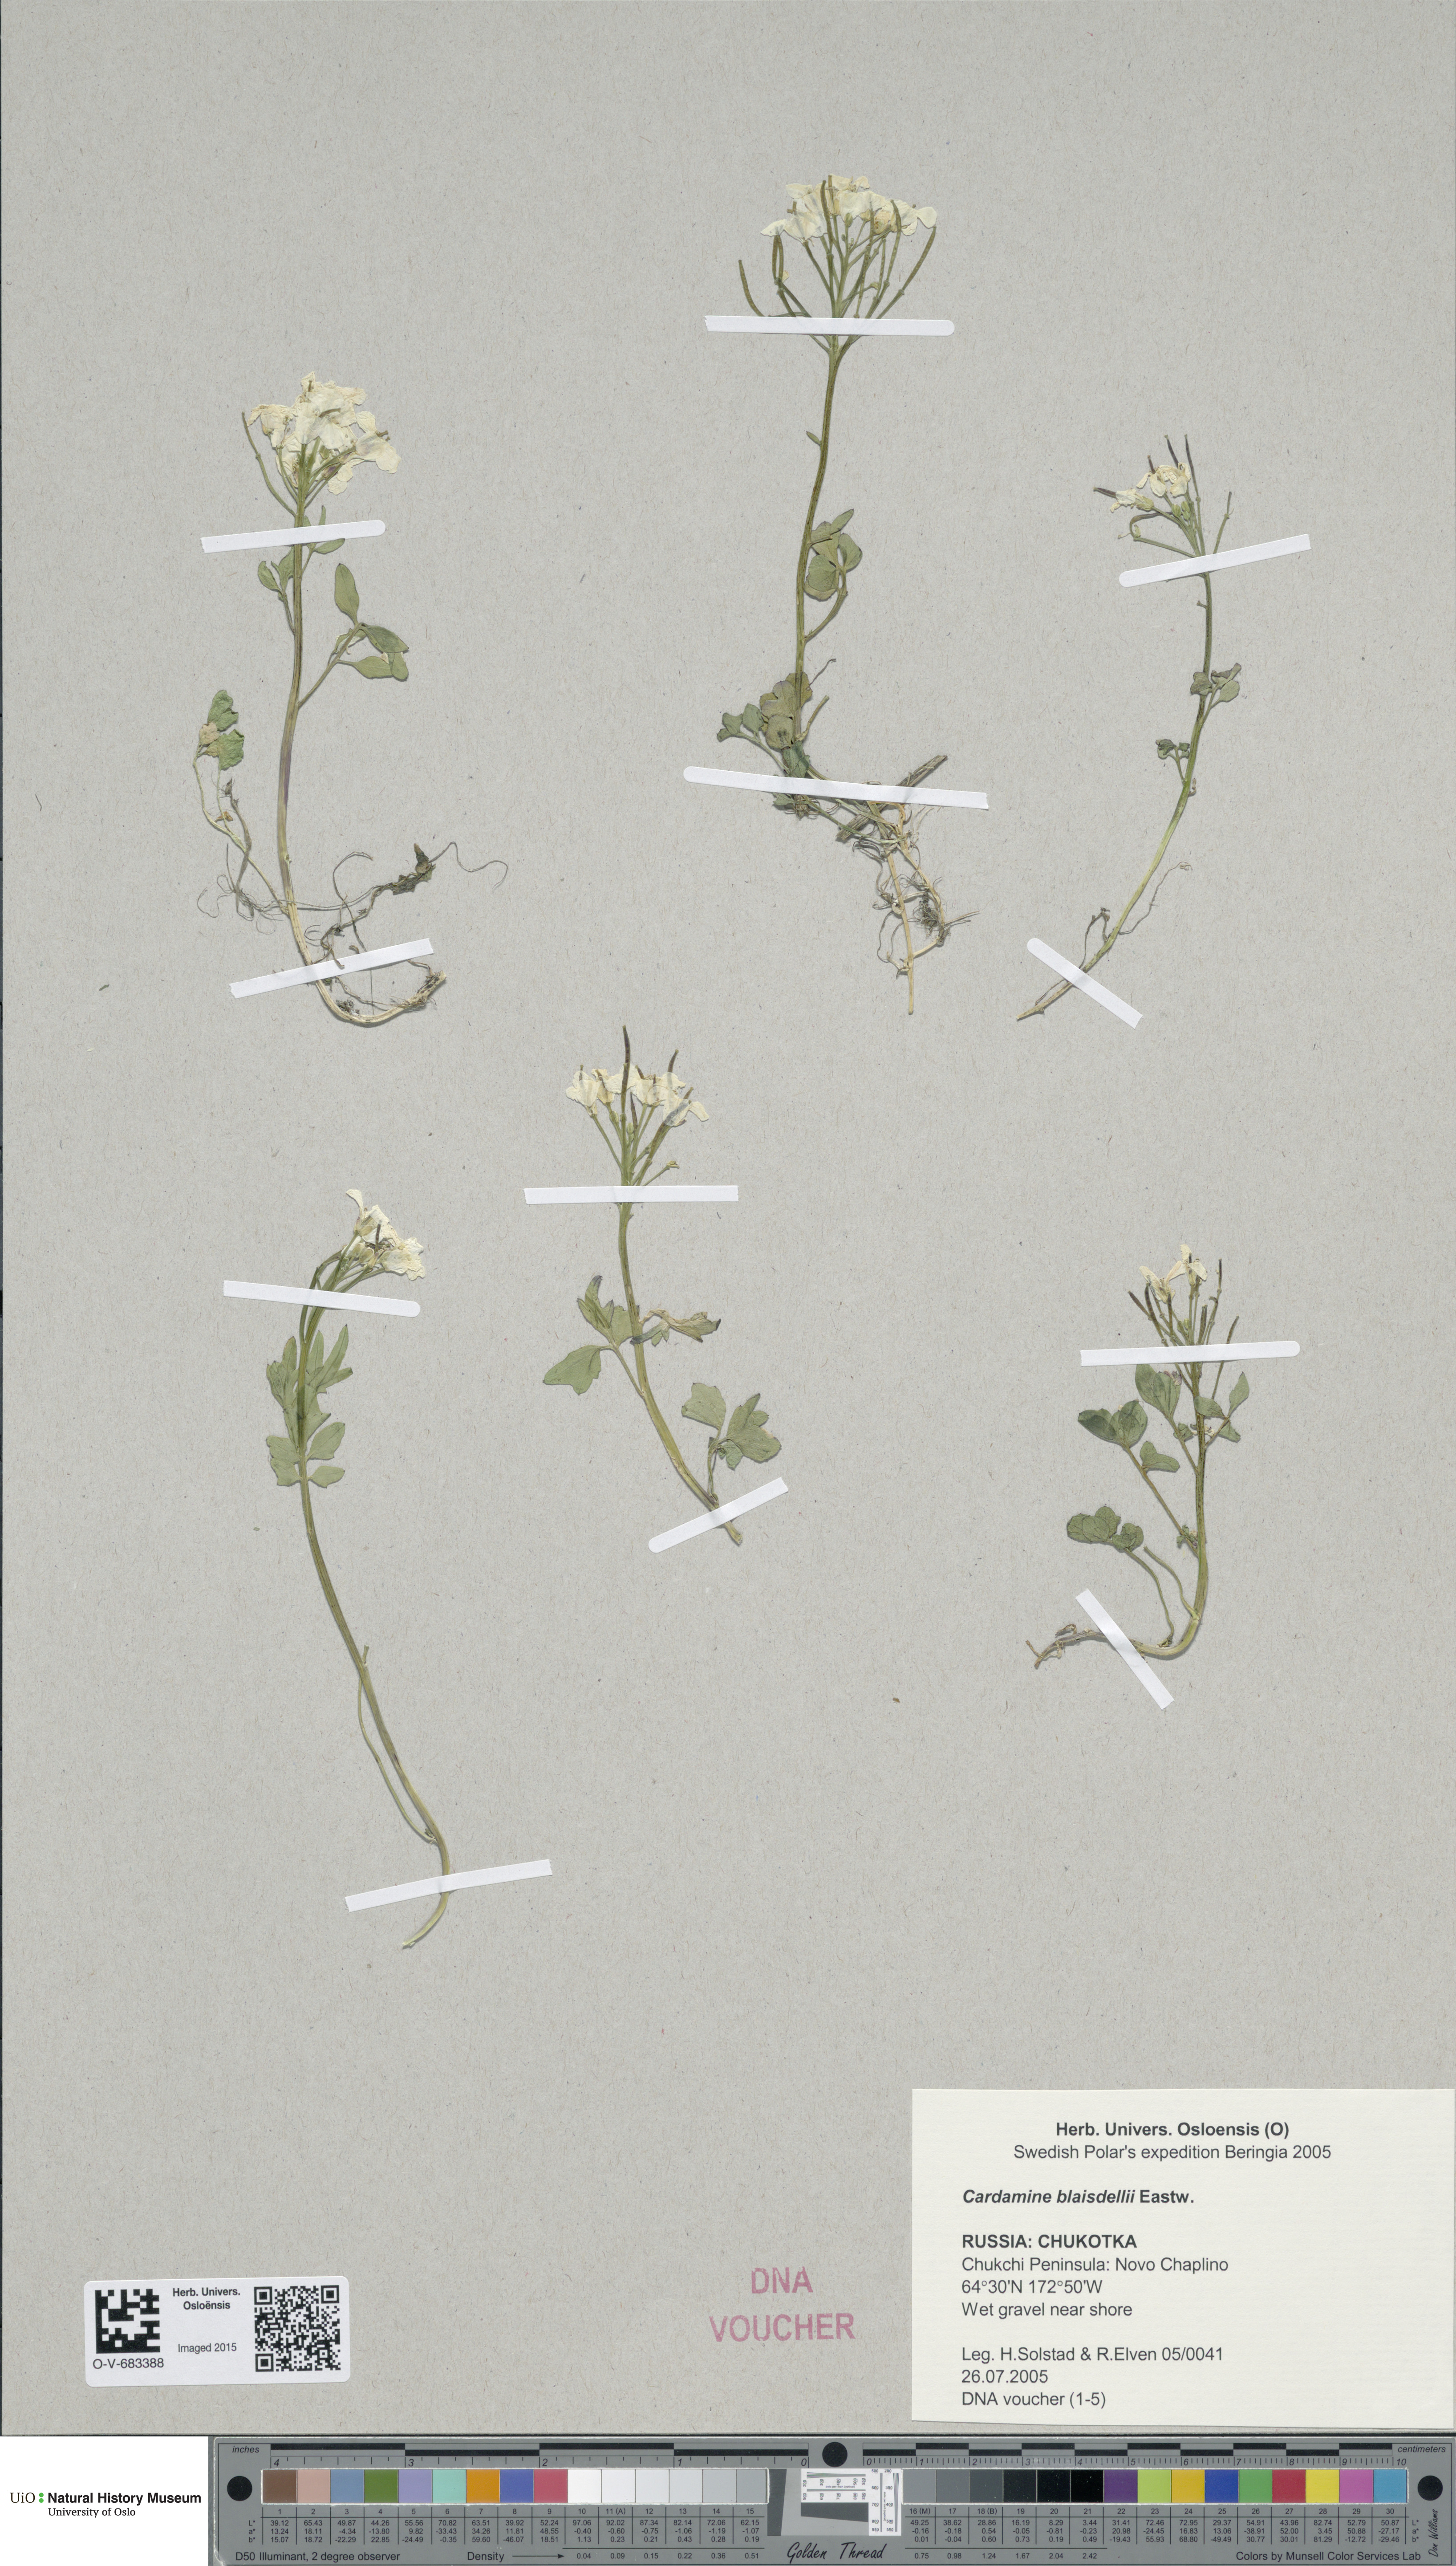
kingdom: Plantae
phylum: Tracheophyta
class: Magnoliopsida
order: Brassicales
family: Brassicaceae
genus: Cardamine
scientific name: Cardamine blaisdellii
